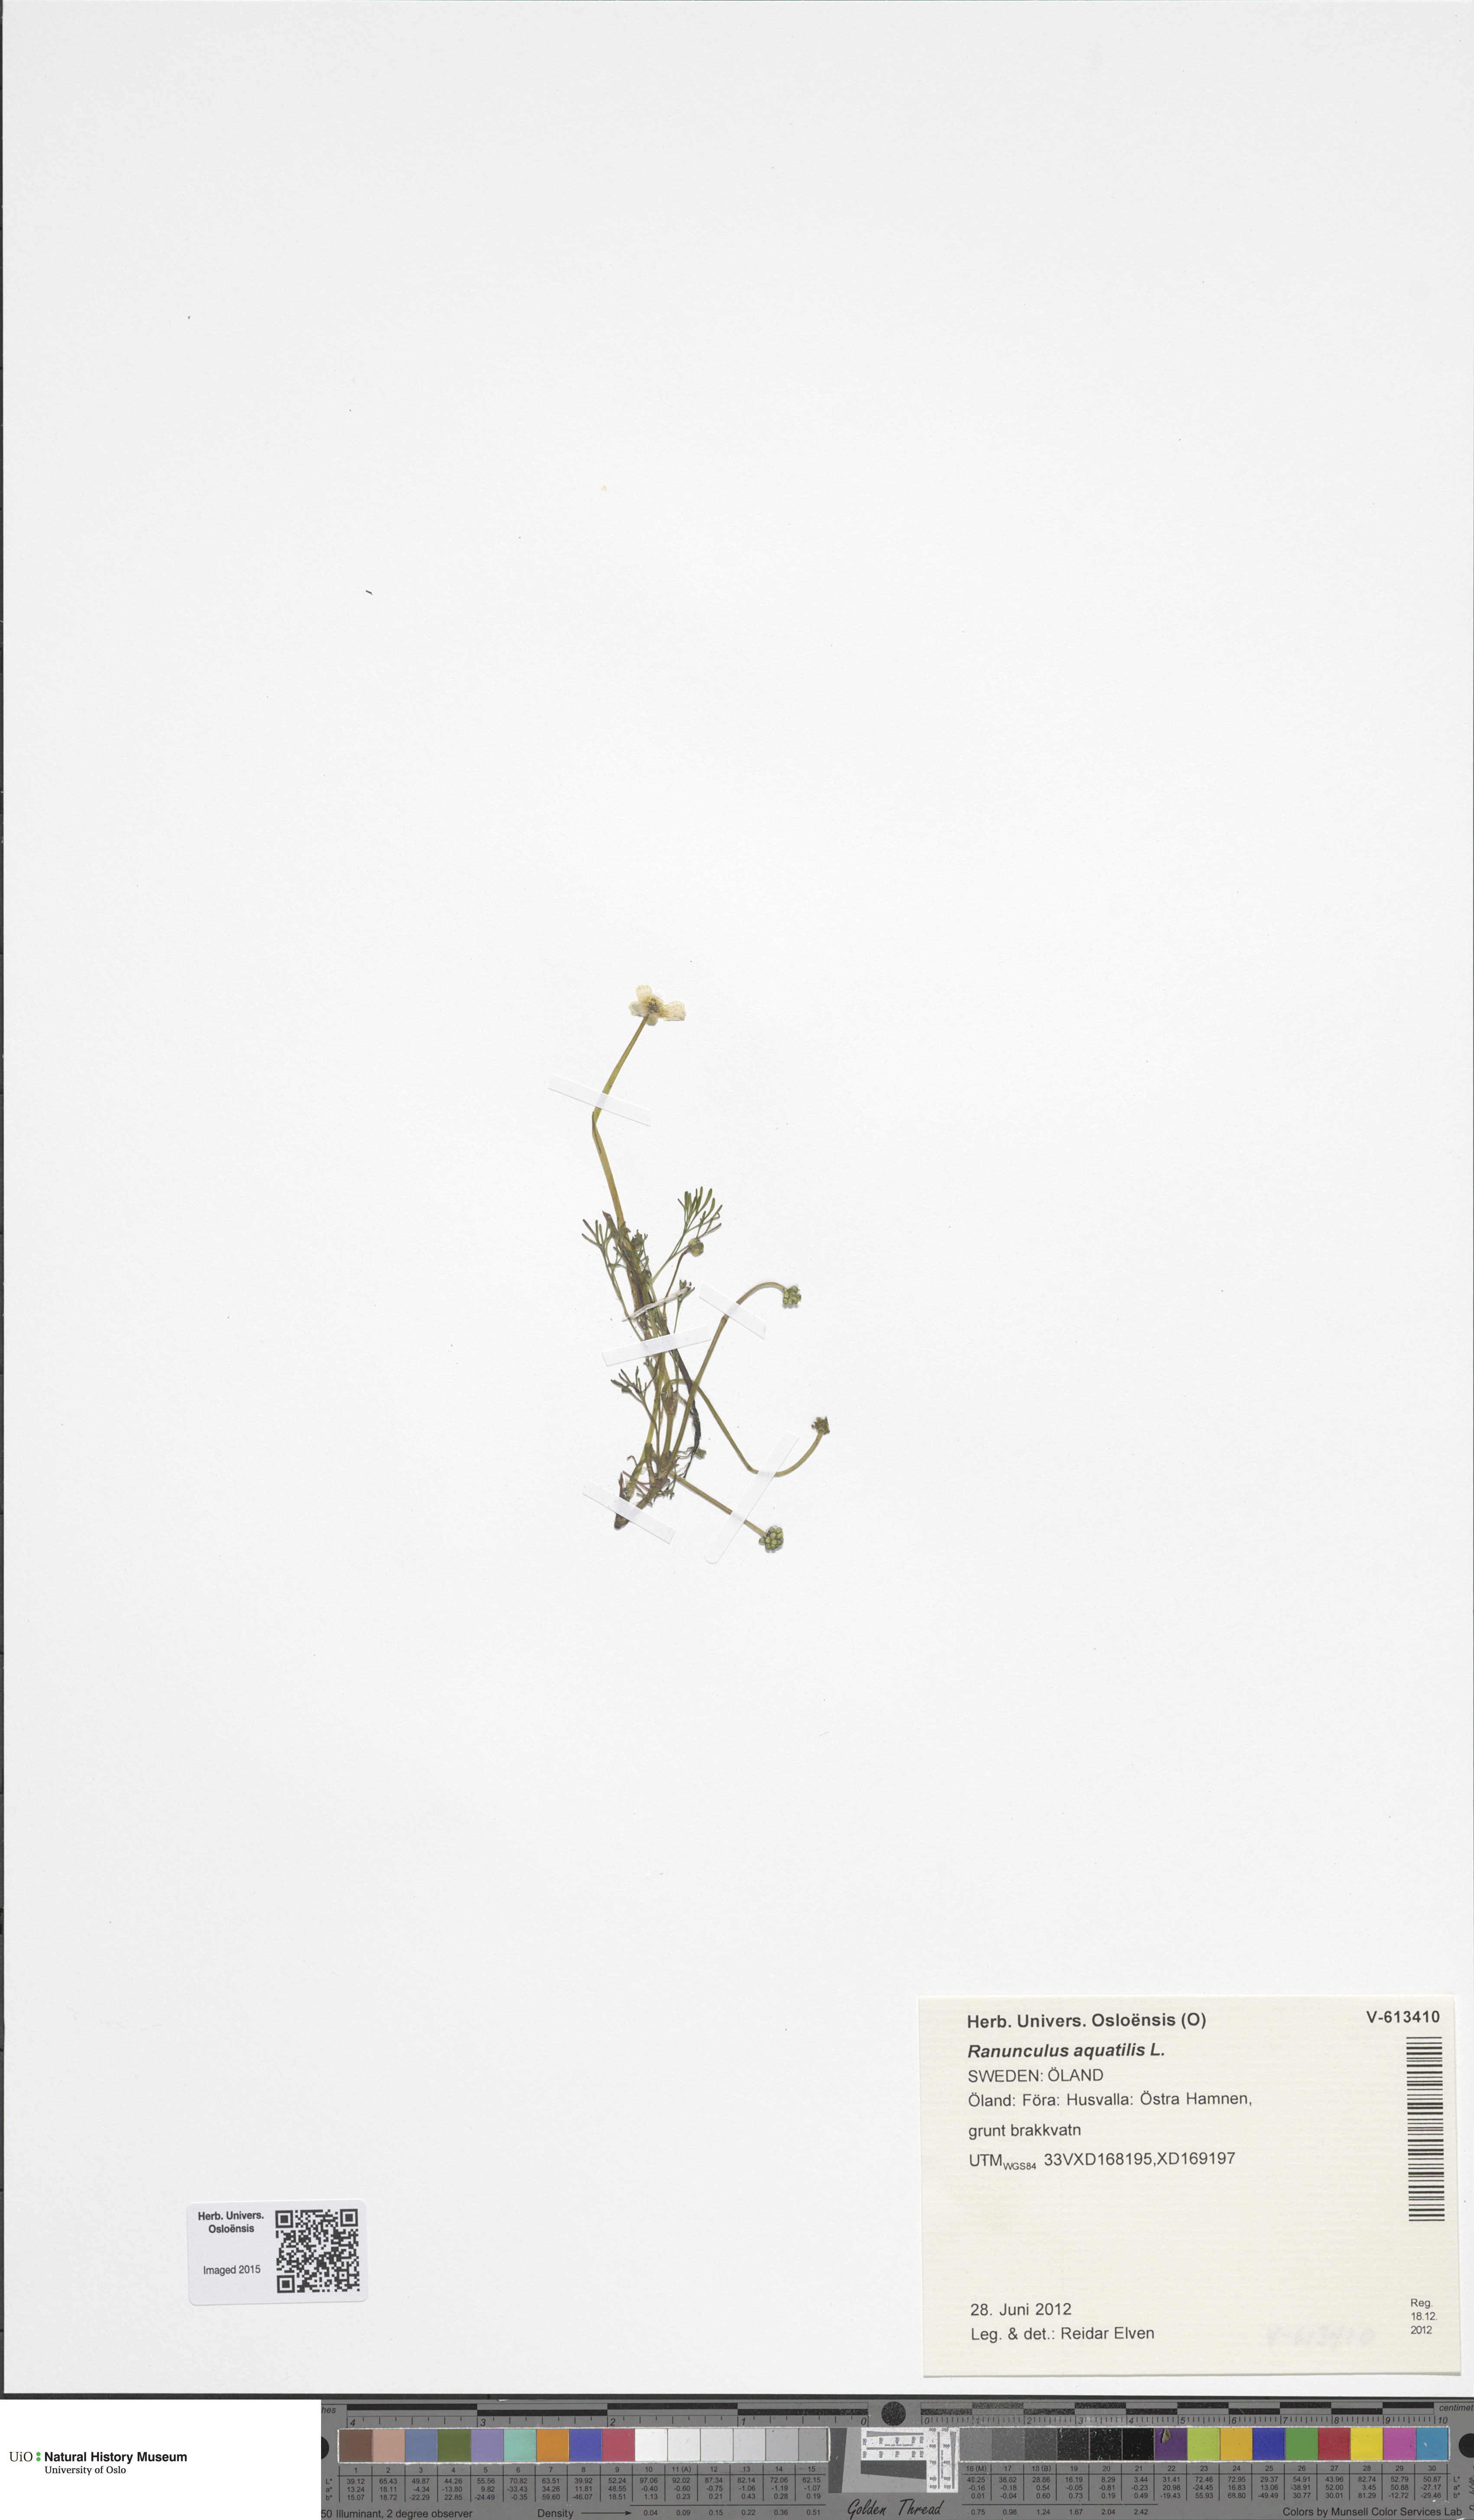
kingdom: Plantae
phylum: Tracheophyta
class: Magnoliopsida
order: Ranunculales
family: Ranunculaceae
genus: Ranunculus
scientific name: Ranunculus aquatilis
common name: Common water-crowfoot
